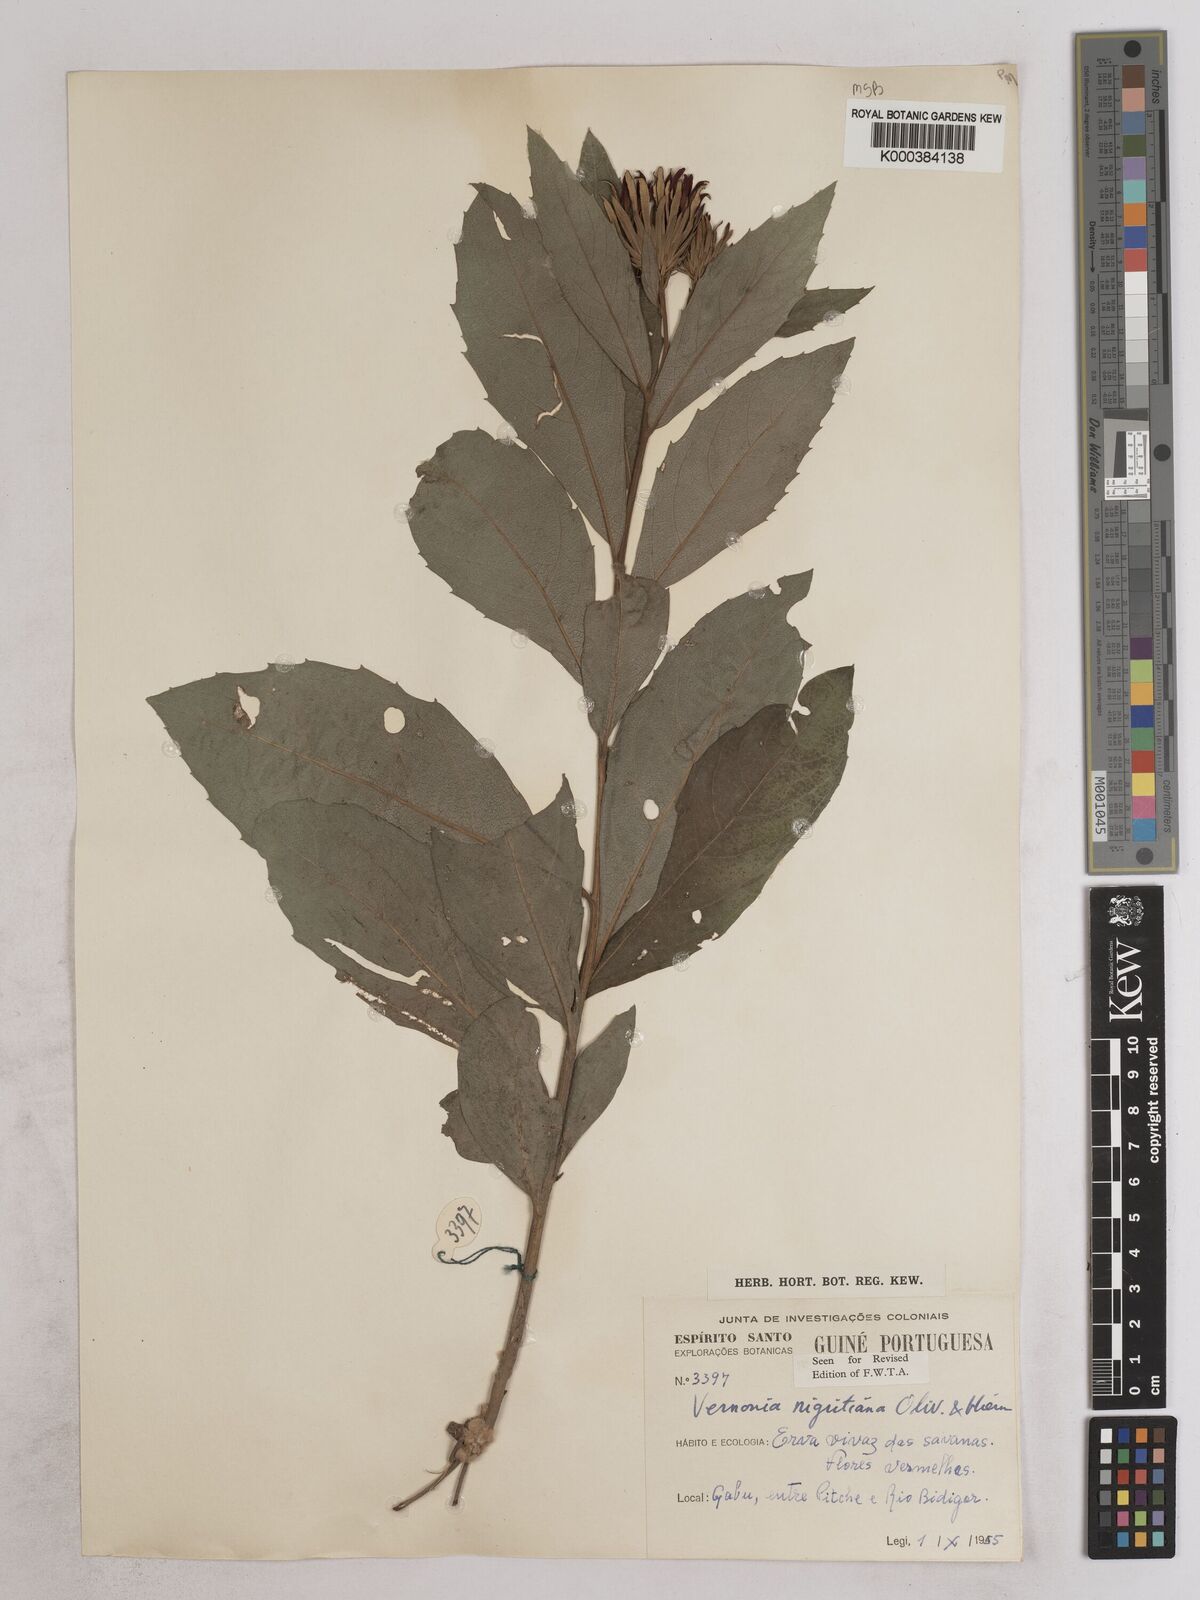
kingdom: Plantae
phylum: Tracheophyta
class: Magnoliopsida
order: Asterales
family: Asteraceae
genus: Linzia
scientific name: Linzia nigritiana
